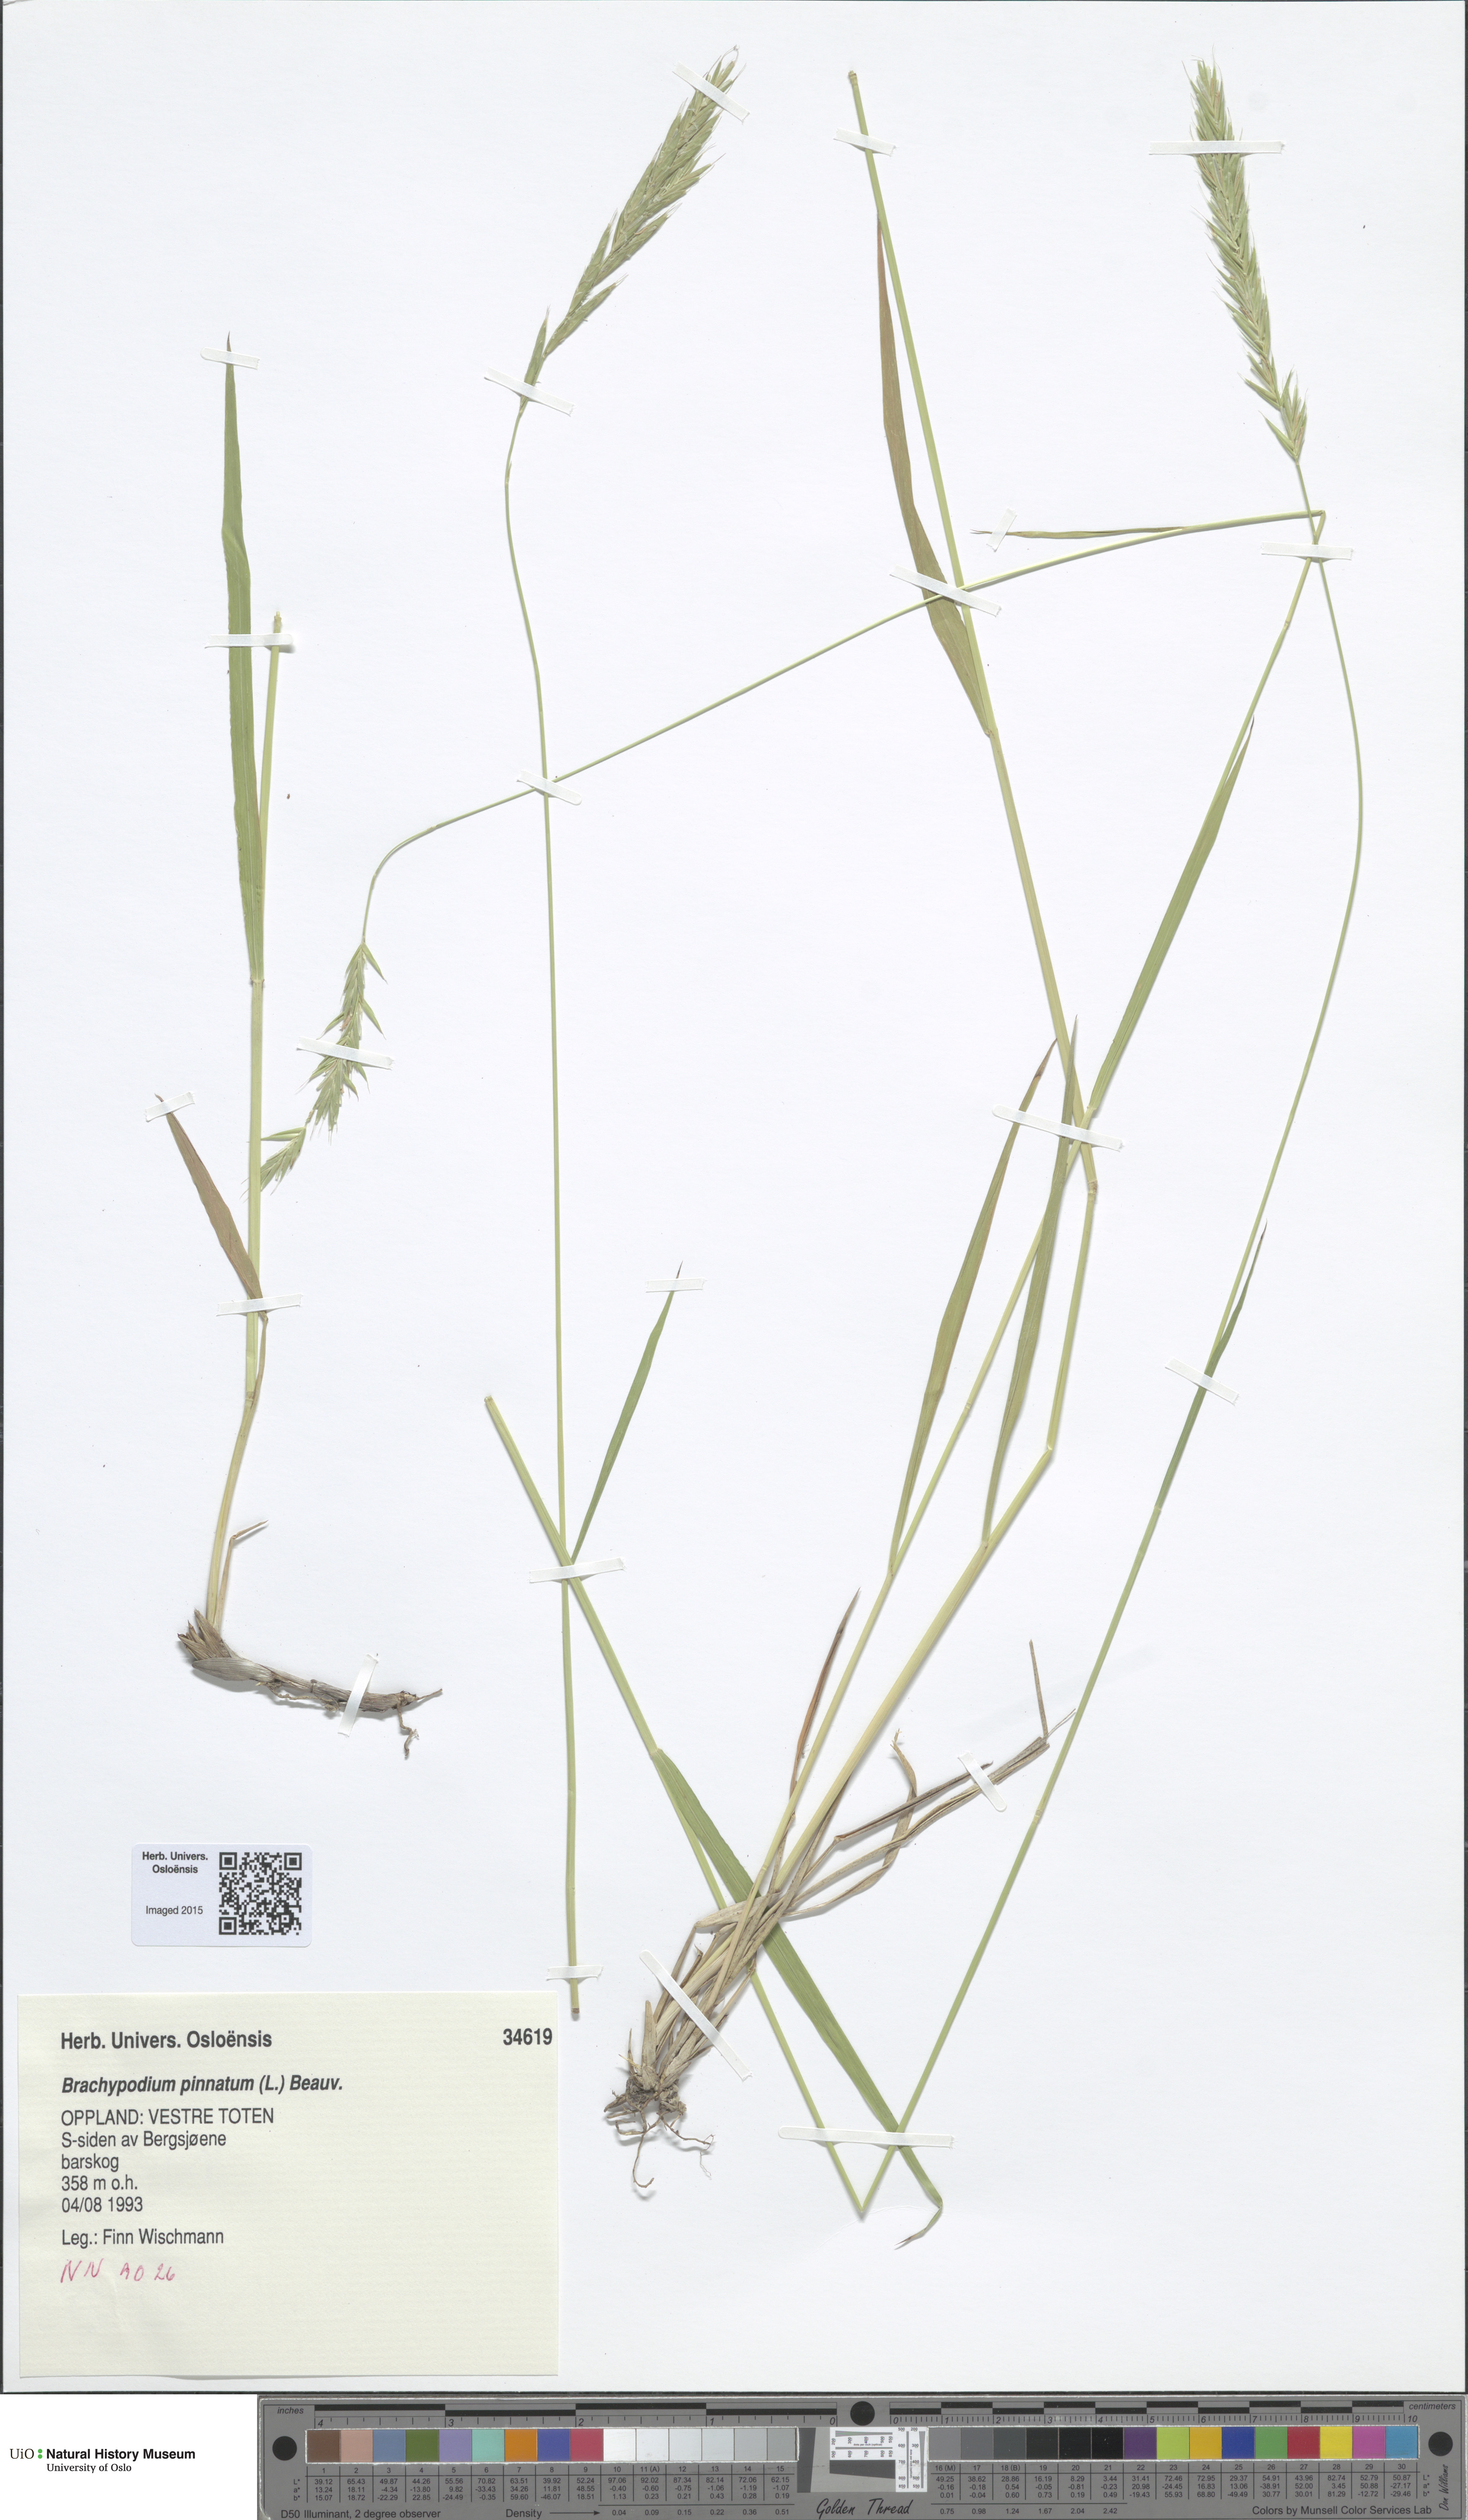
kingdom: Plantae
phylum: Tracheophyta
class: Liliopsida
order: Poales
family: Poaceae
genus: Brachypodium
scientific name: Brachypodium pinnatum
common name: Tor grass
